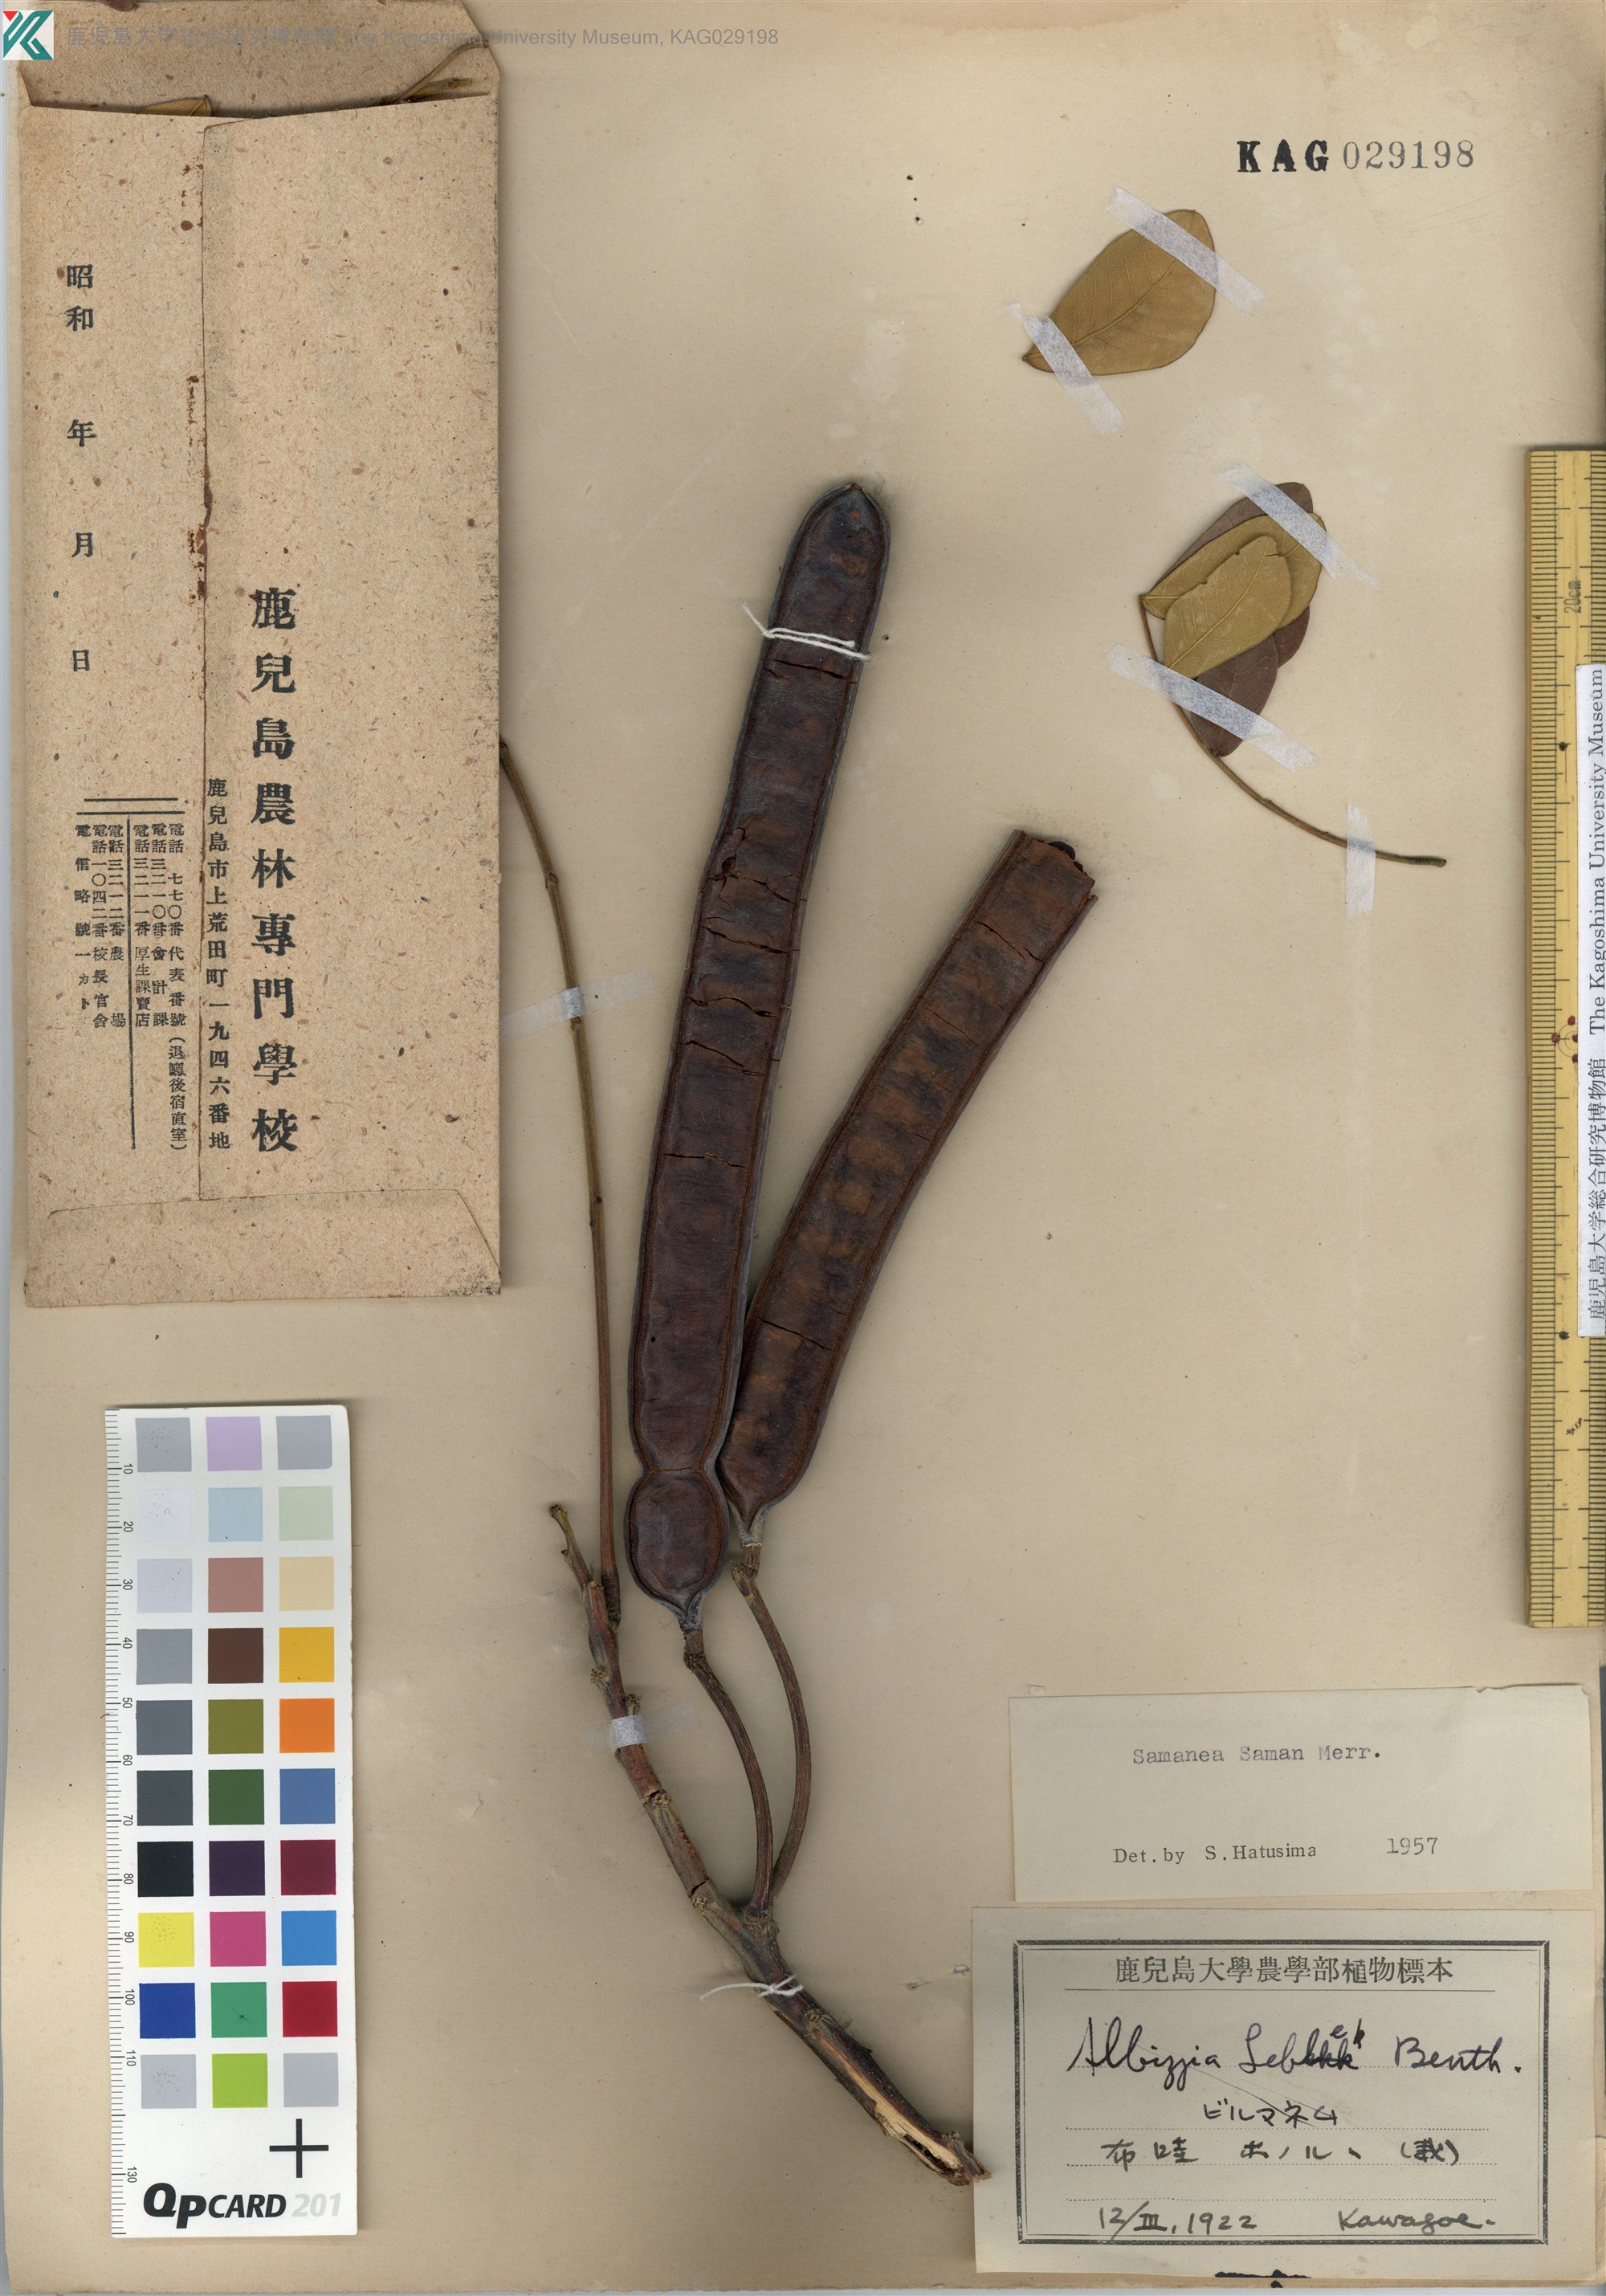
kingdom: Plantae
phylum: Tracheophyta
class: Magnoliopsida
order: Fabales
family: Fabaceae
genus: Samanea
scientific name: Samanea saman
